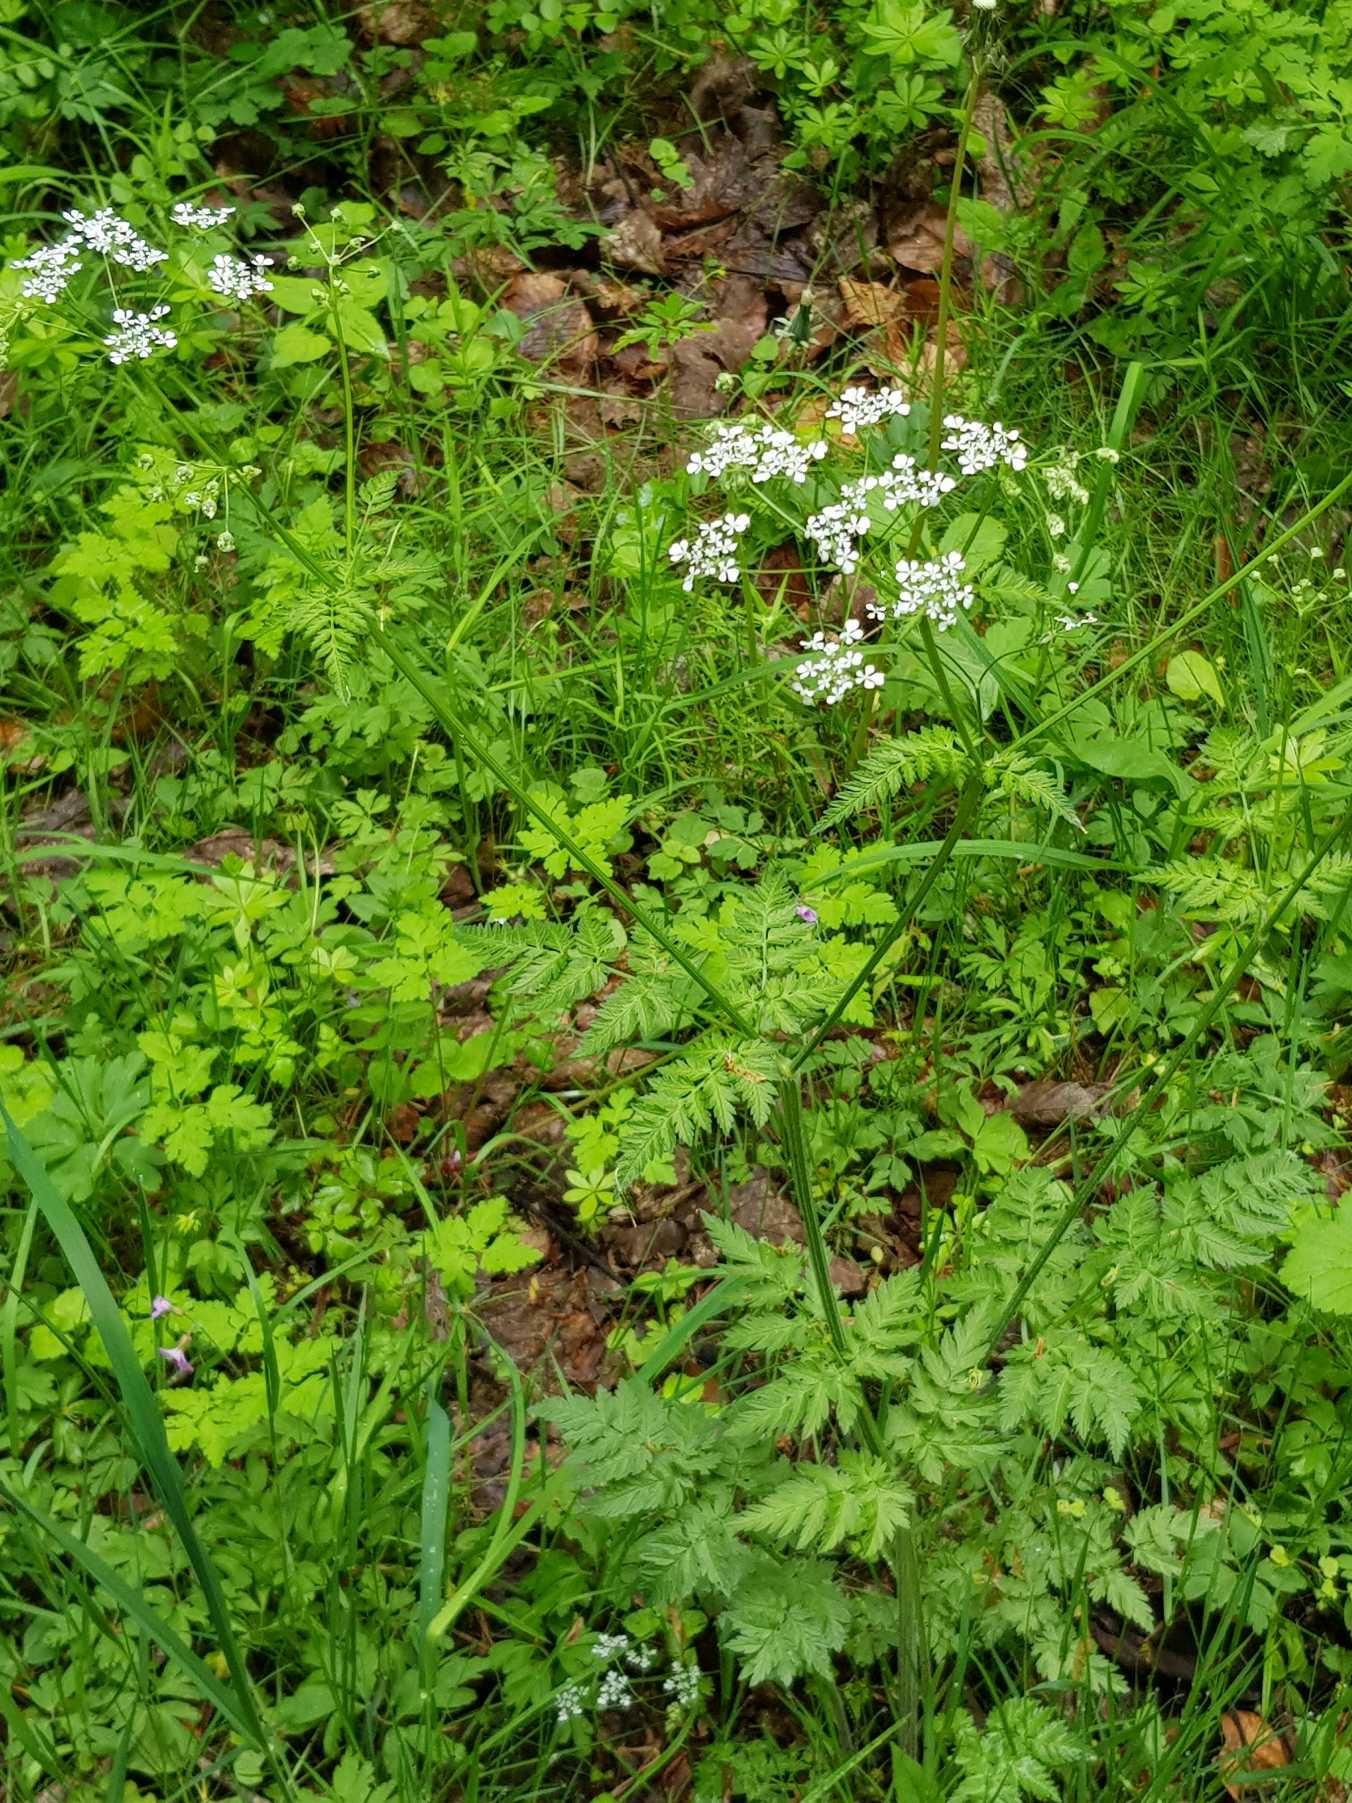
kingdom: Plantae
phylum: Tracheophyta
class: Magnoliopsida
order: Apiales
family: Apiaceae
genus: Anthriscus
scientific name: Anthriscus sylvestris
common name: Vild kørvel
